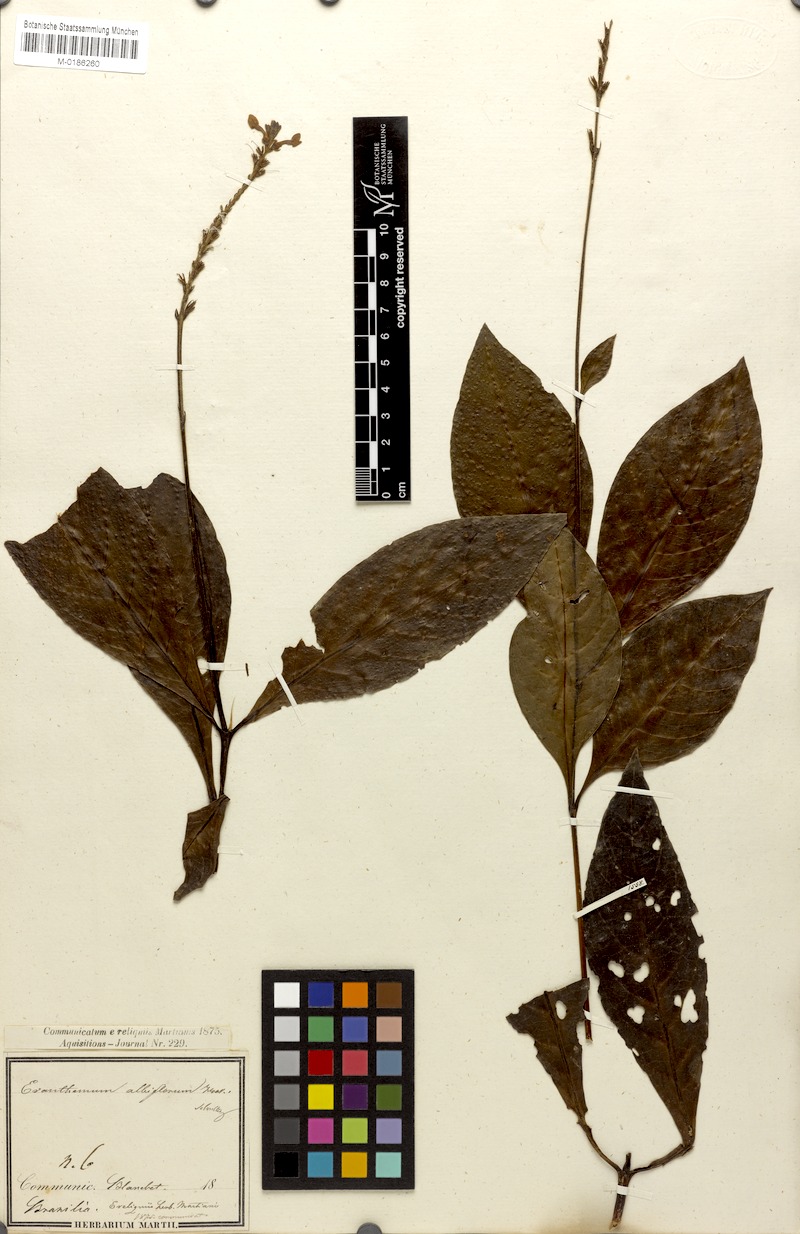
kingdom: Plantae
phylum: Tracheophyta
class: Magnoliopsida
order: Lamiales
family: Acanthaceae
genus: Pseuderanthemum
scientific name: Pseuderanthemum albiflorum
